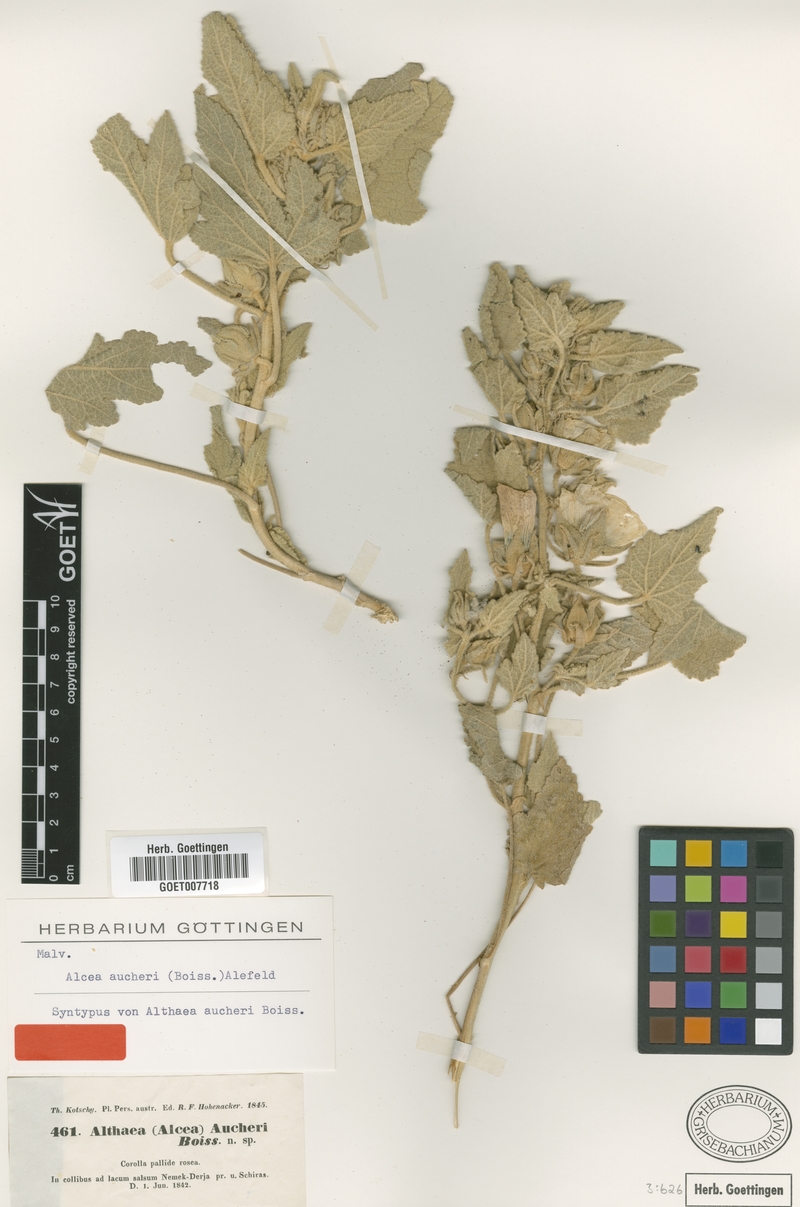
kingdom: Plantae
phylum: Tracheophyta
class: Magnoliopsida
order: Malvales
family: Malvaceae
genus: Alcea
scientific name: Alcea aucheri
